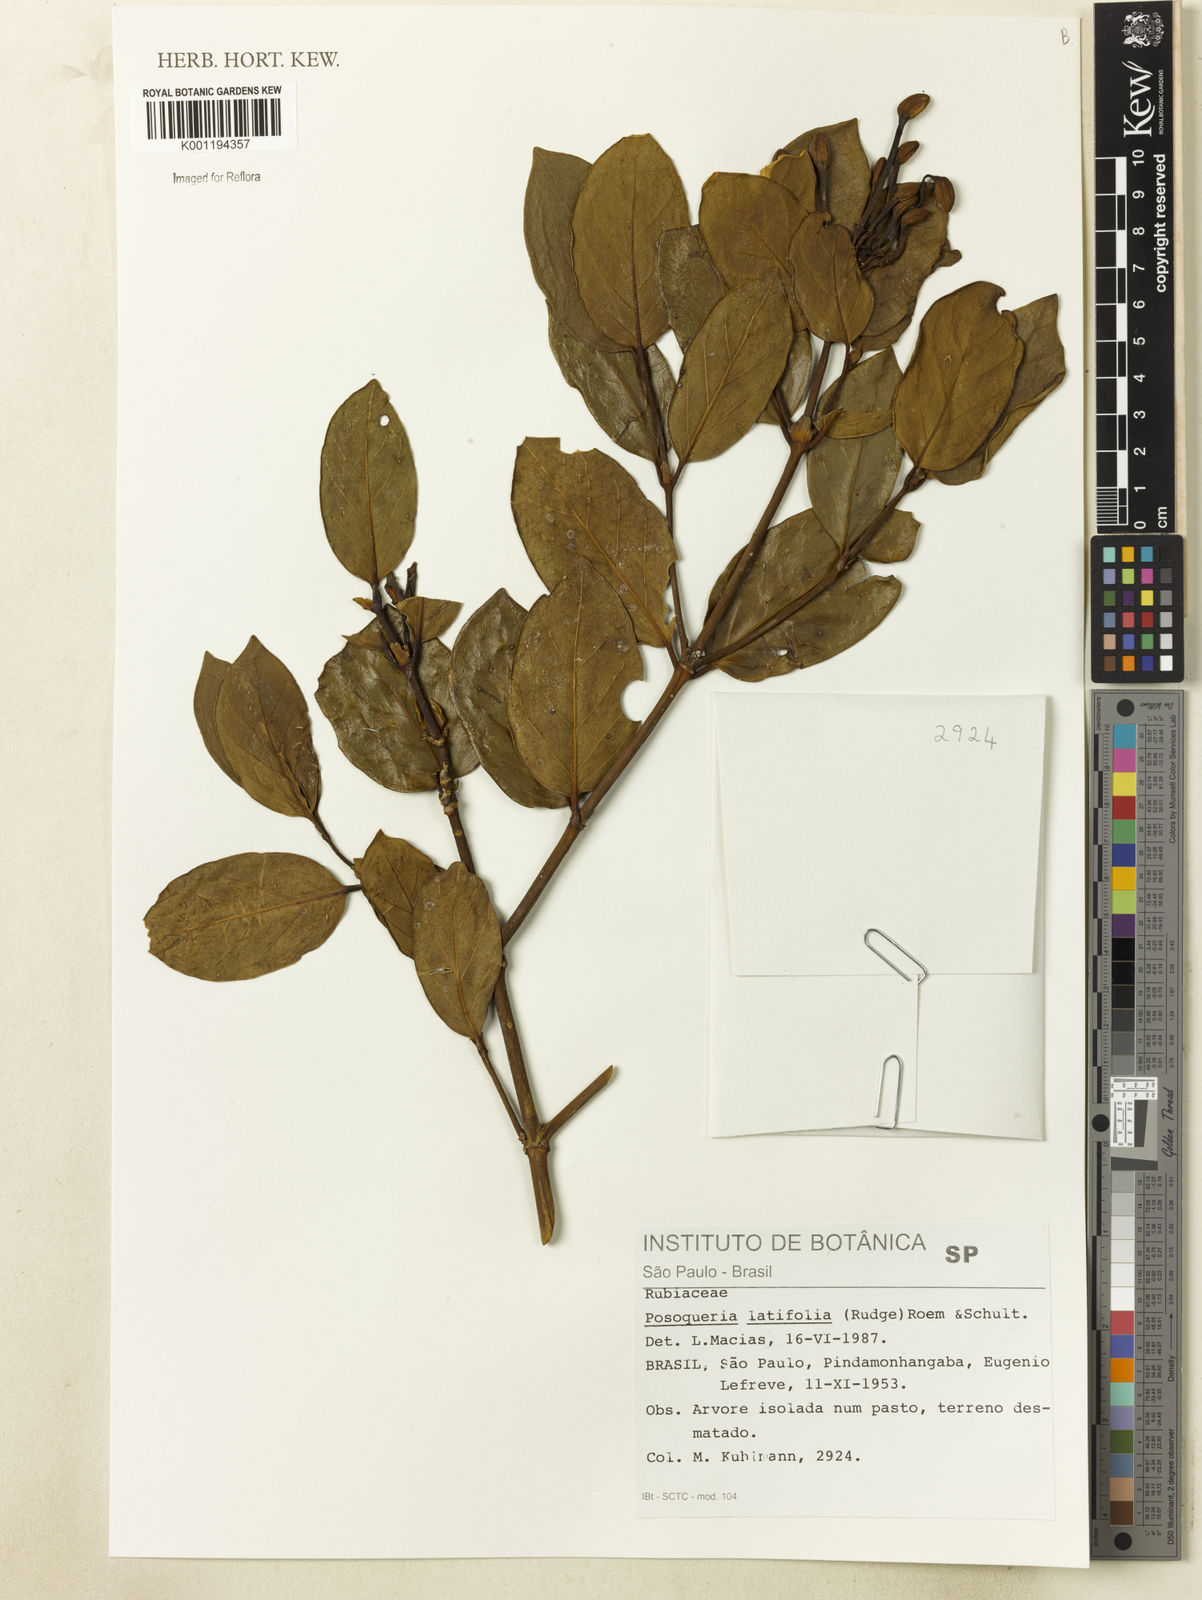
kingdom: Plantae
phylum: Tracheophyta
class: Magnoliopsida
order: Gentianales
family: Rubiaceae
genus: Posoqueria
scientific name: Posoqueria latifolia
